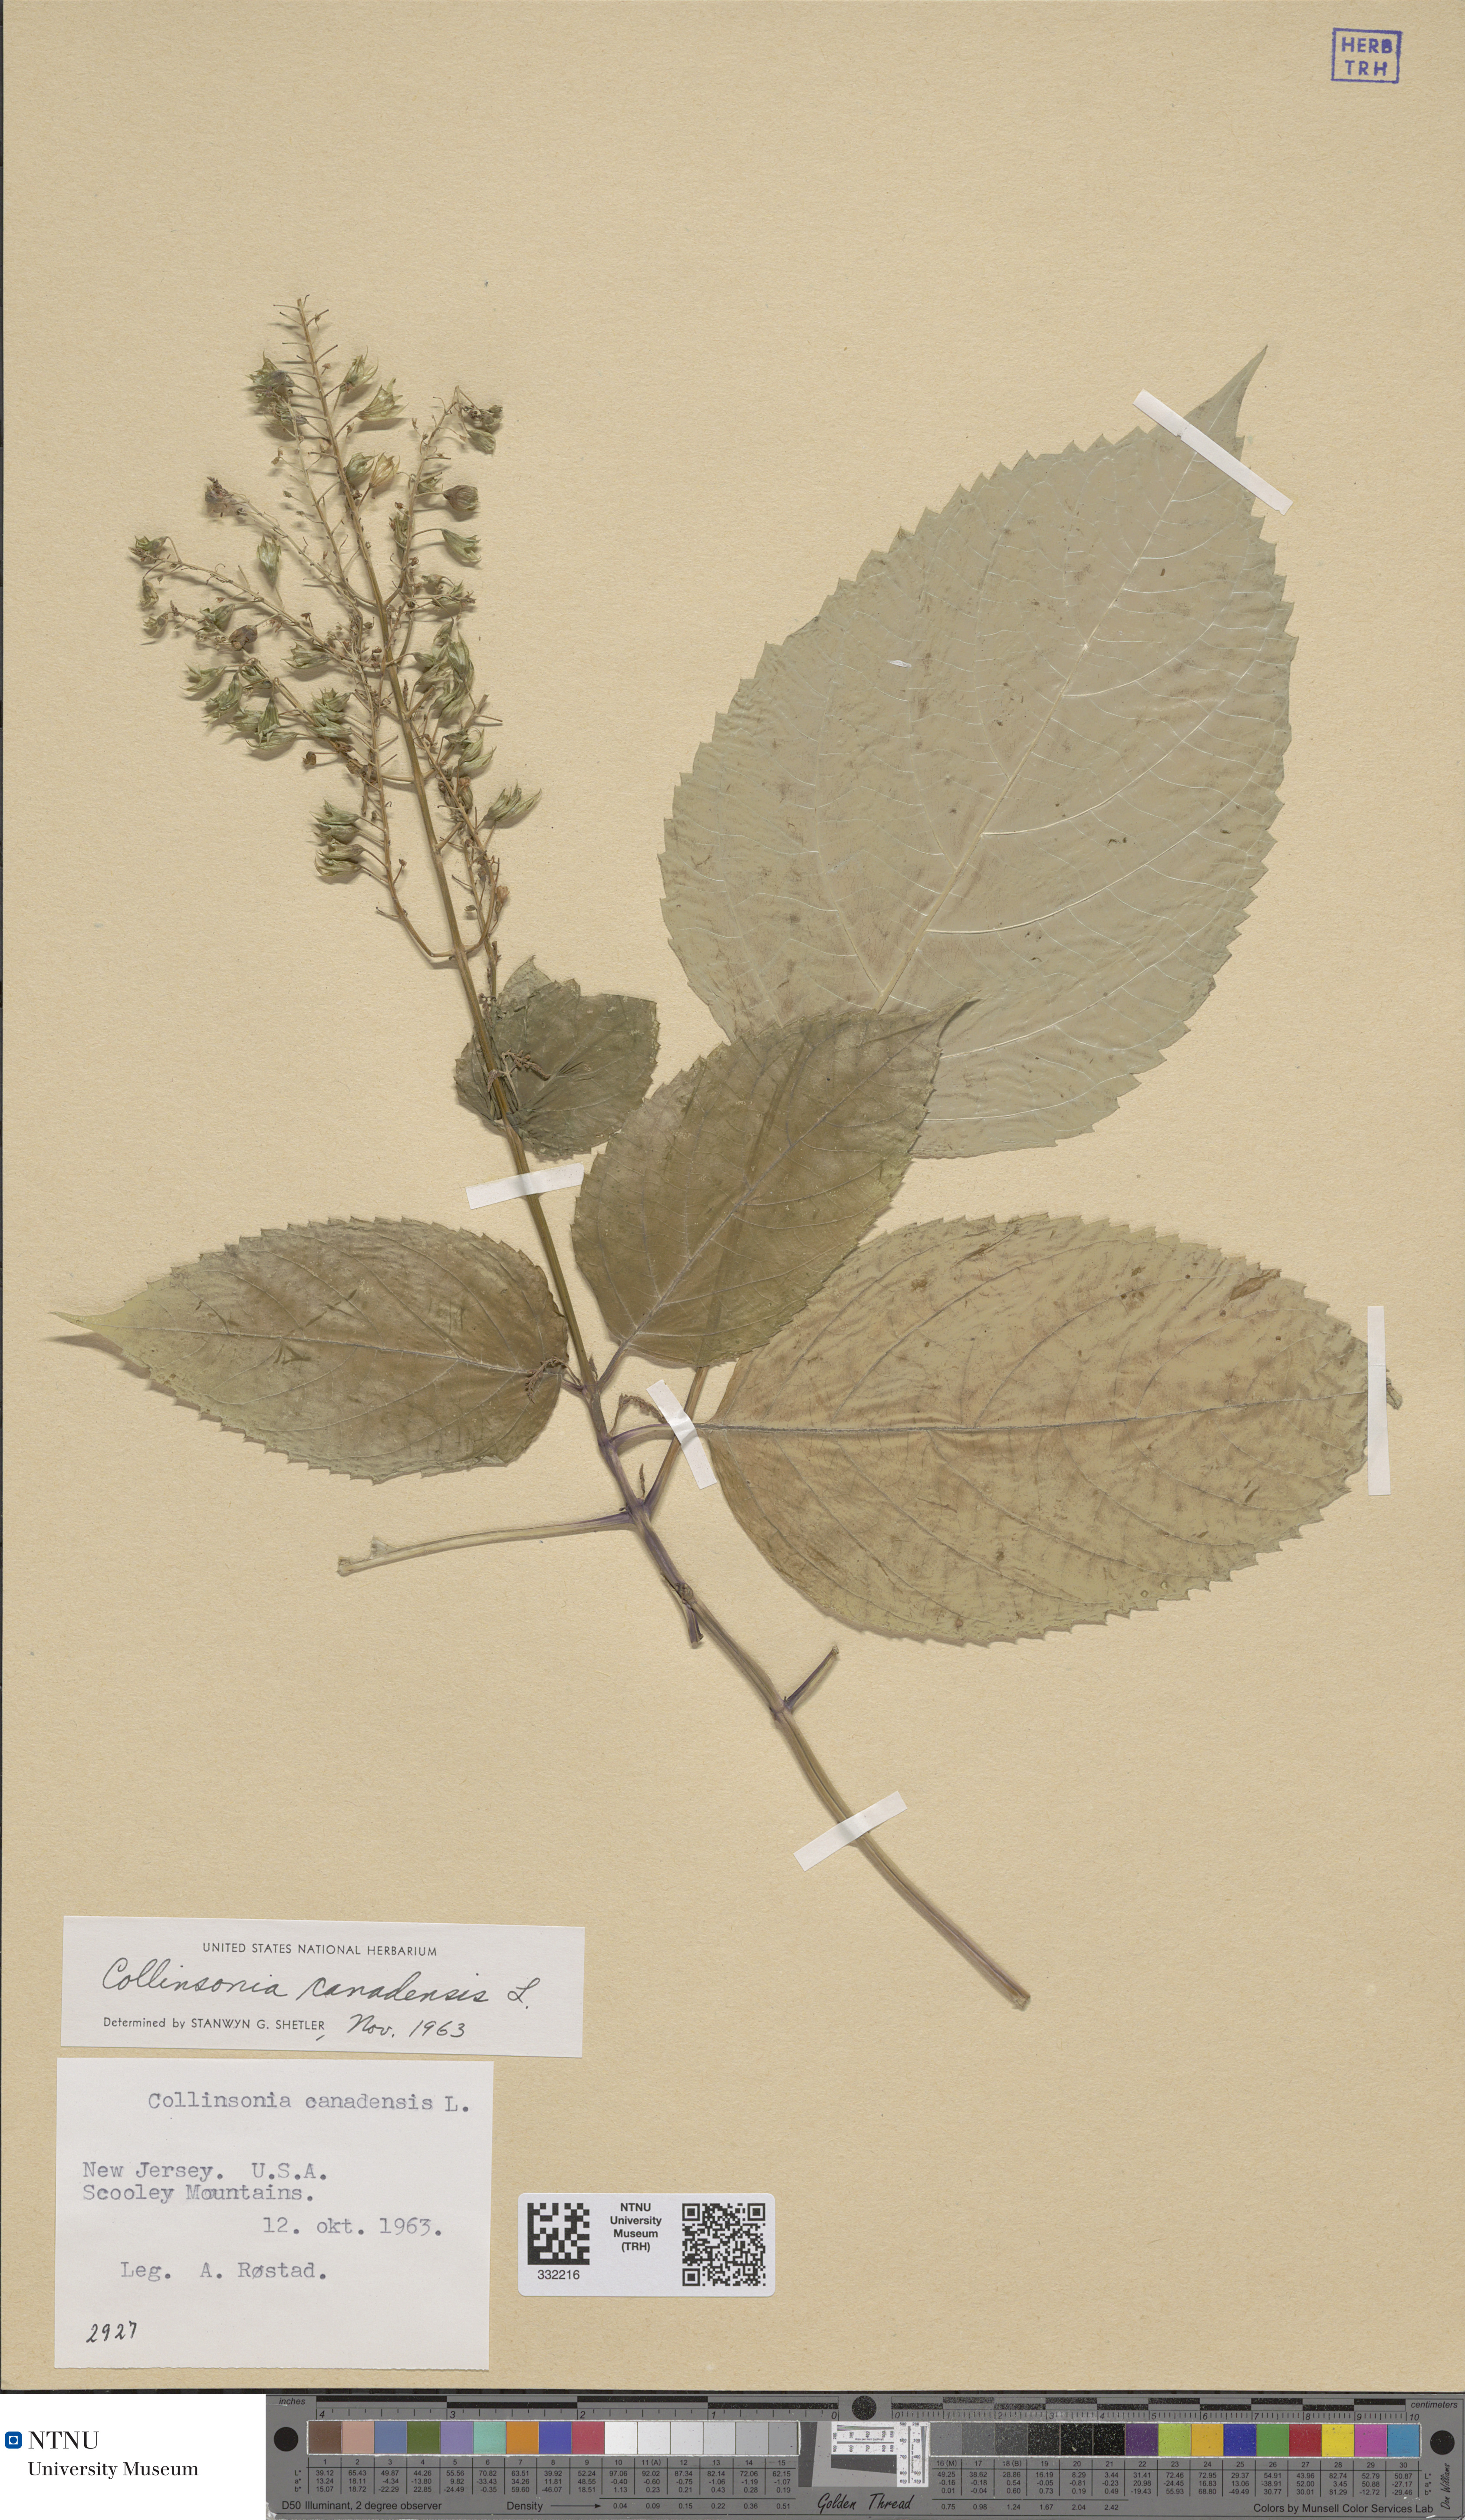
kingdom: Plantae
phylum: Tracheophyta
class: Magnoliopsida
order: Lamiales
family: Lamiaceae
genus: Collinsonia
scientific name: Collinsonia canadensis
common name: Northern horsebalm
